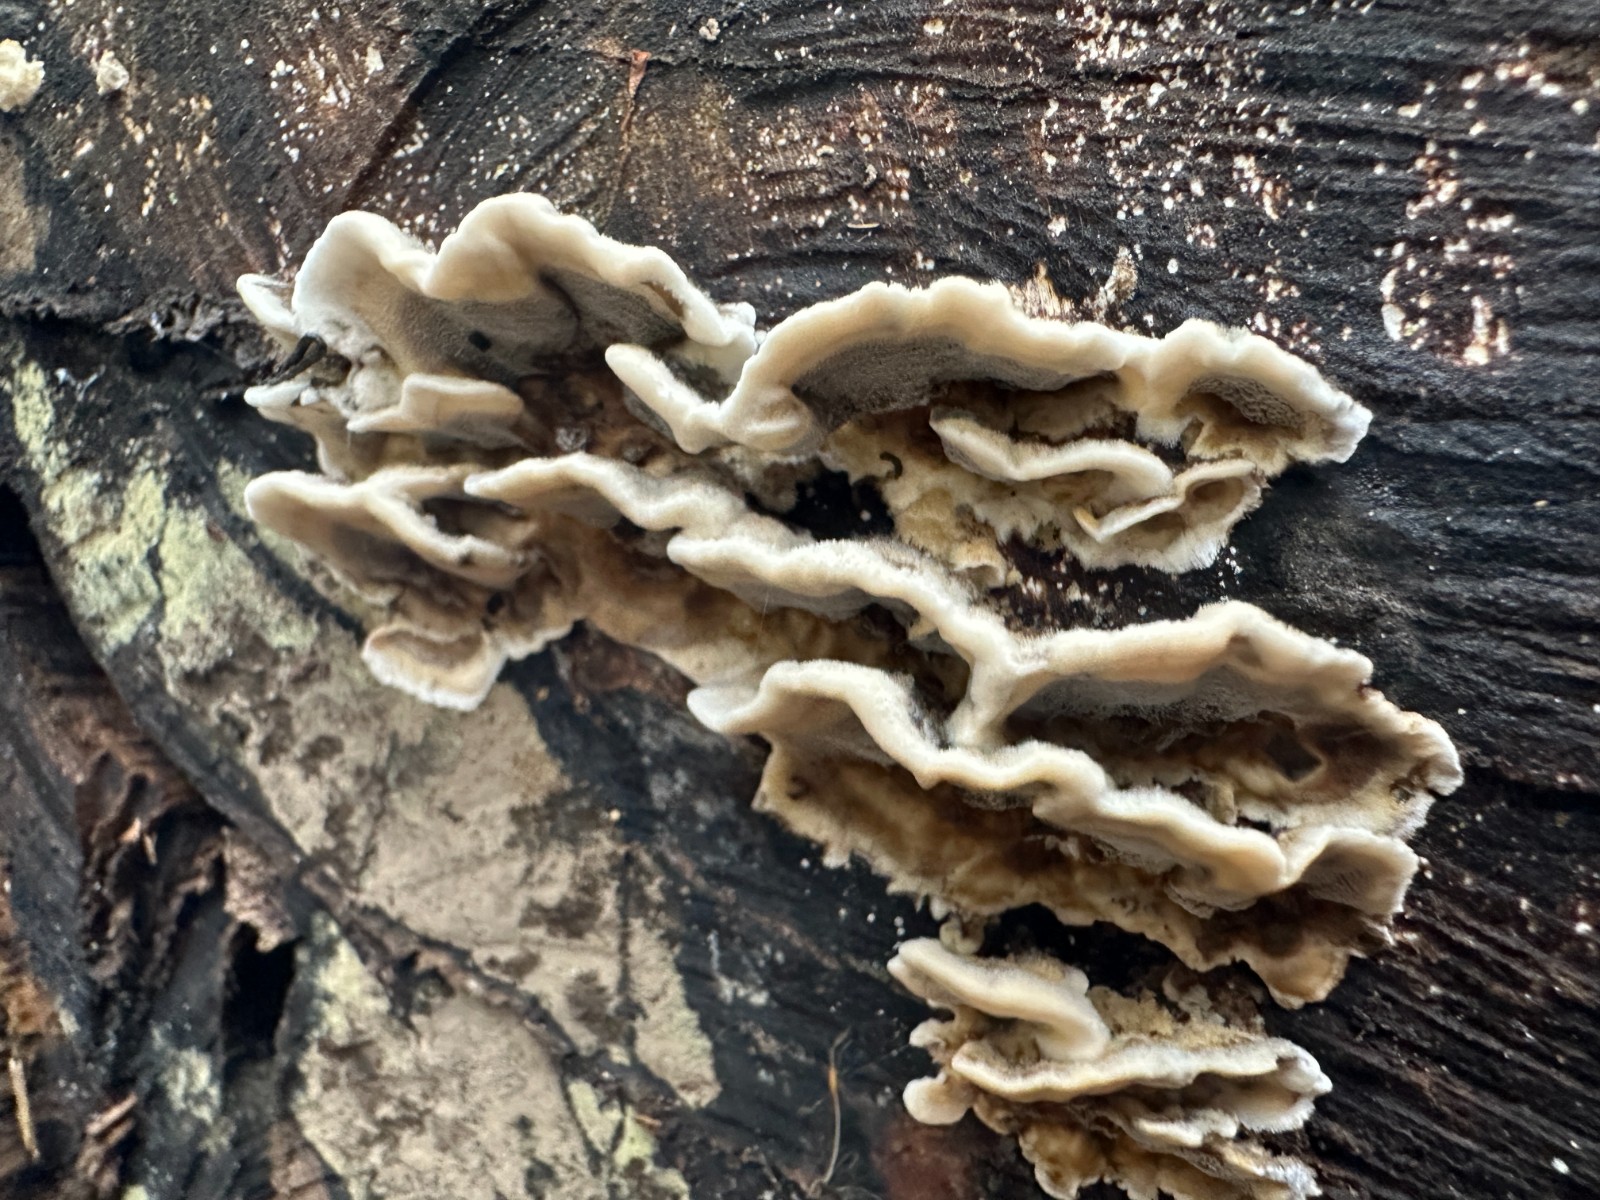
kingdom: Fungi
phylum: Basidiomycota
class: Agaricomycetes
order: Polyporales
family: Phanerochaetaceae
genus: Bjerkandera
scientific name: Bjerkandera adusta
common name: sveden sodporesvamp
